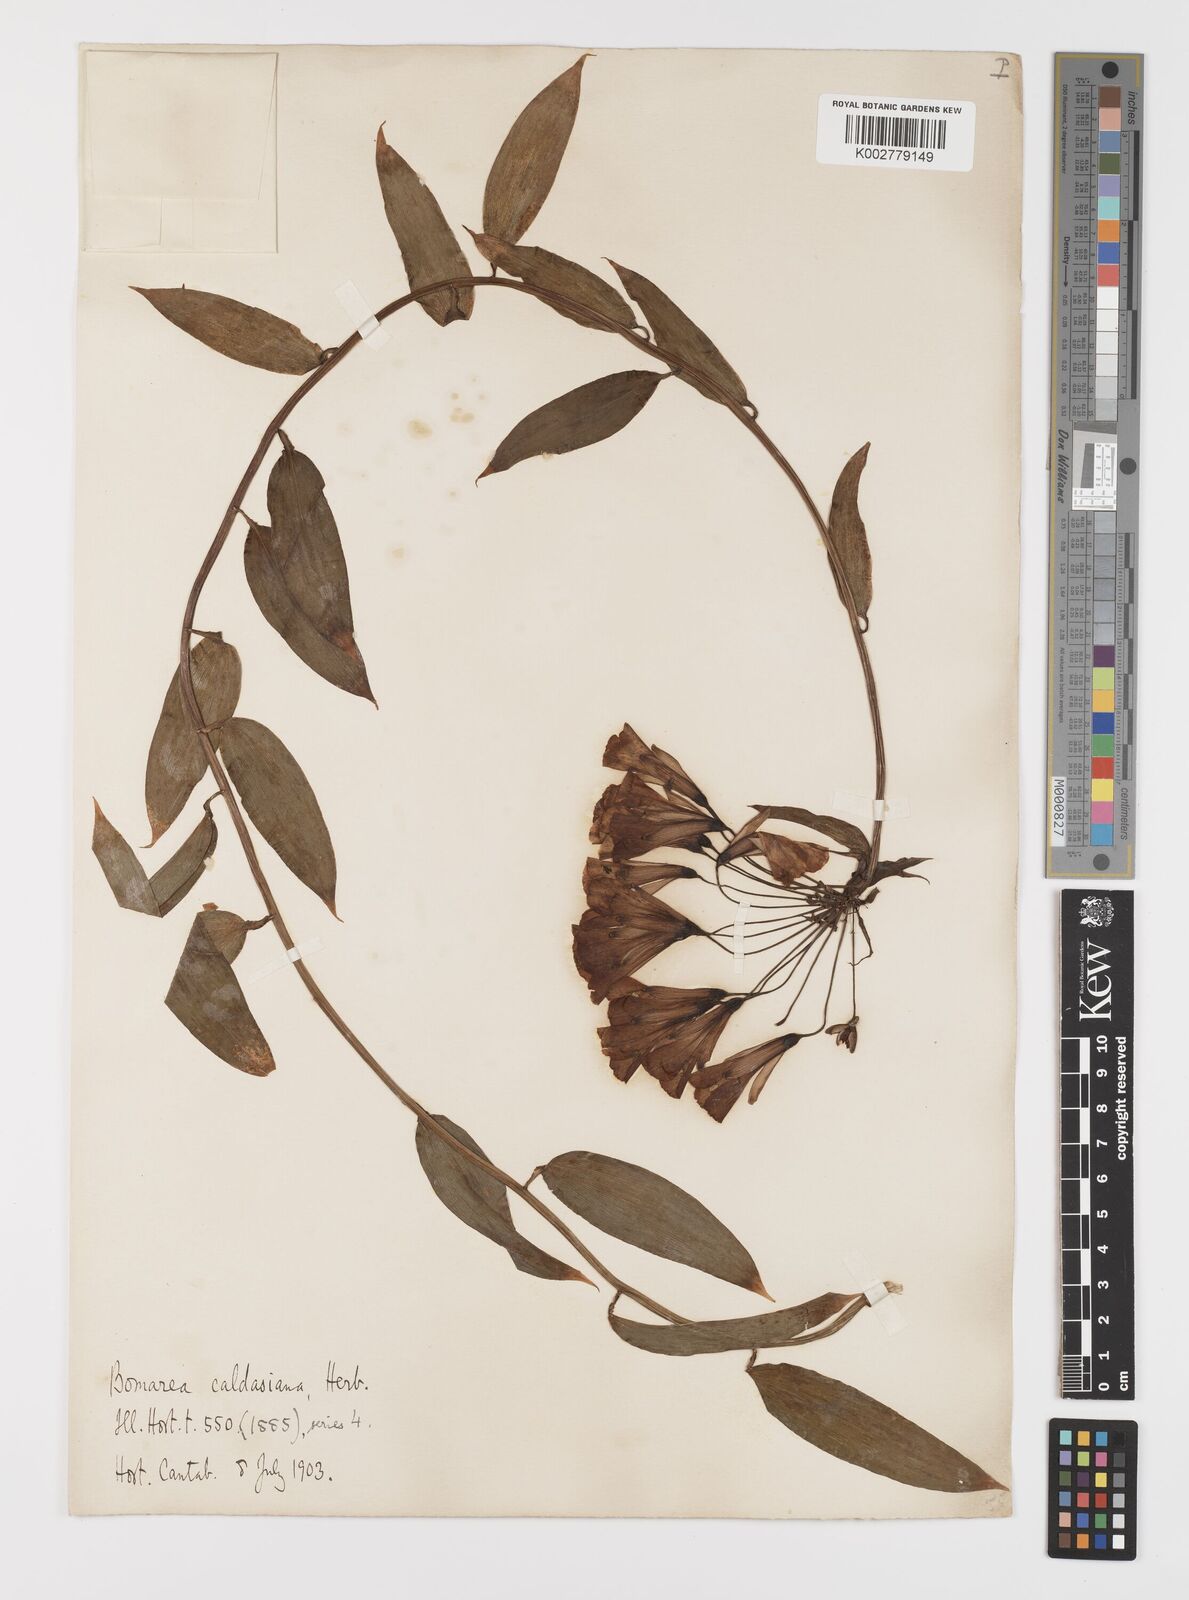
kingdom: Plantae
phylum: Tracheophyta
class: Liliopsida
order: Liliales
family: Alstroemeriaceae
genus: Bomarea
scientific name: Bomarea multiflora
